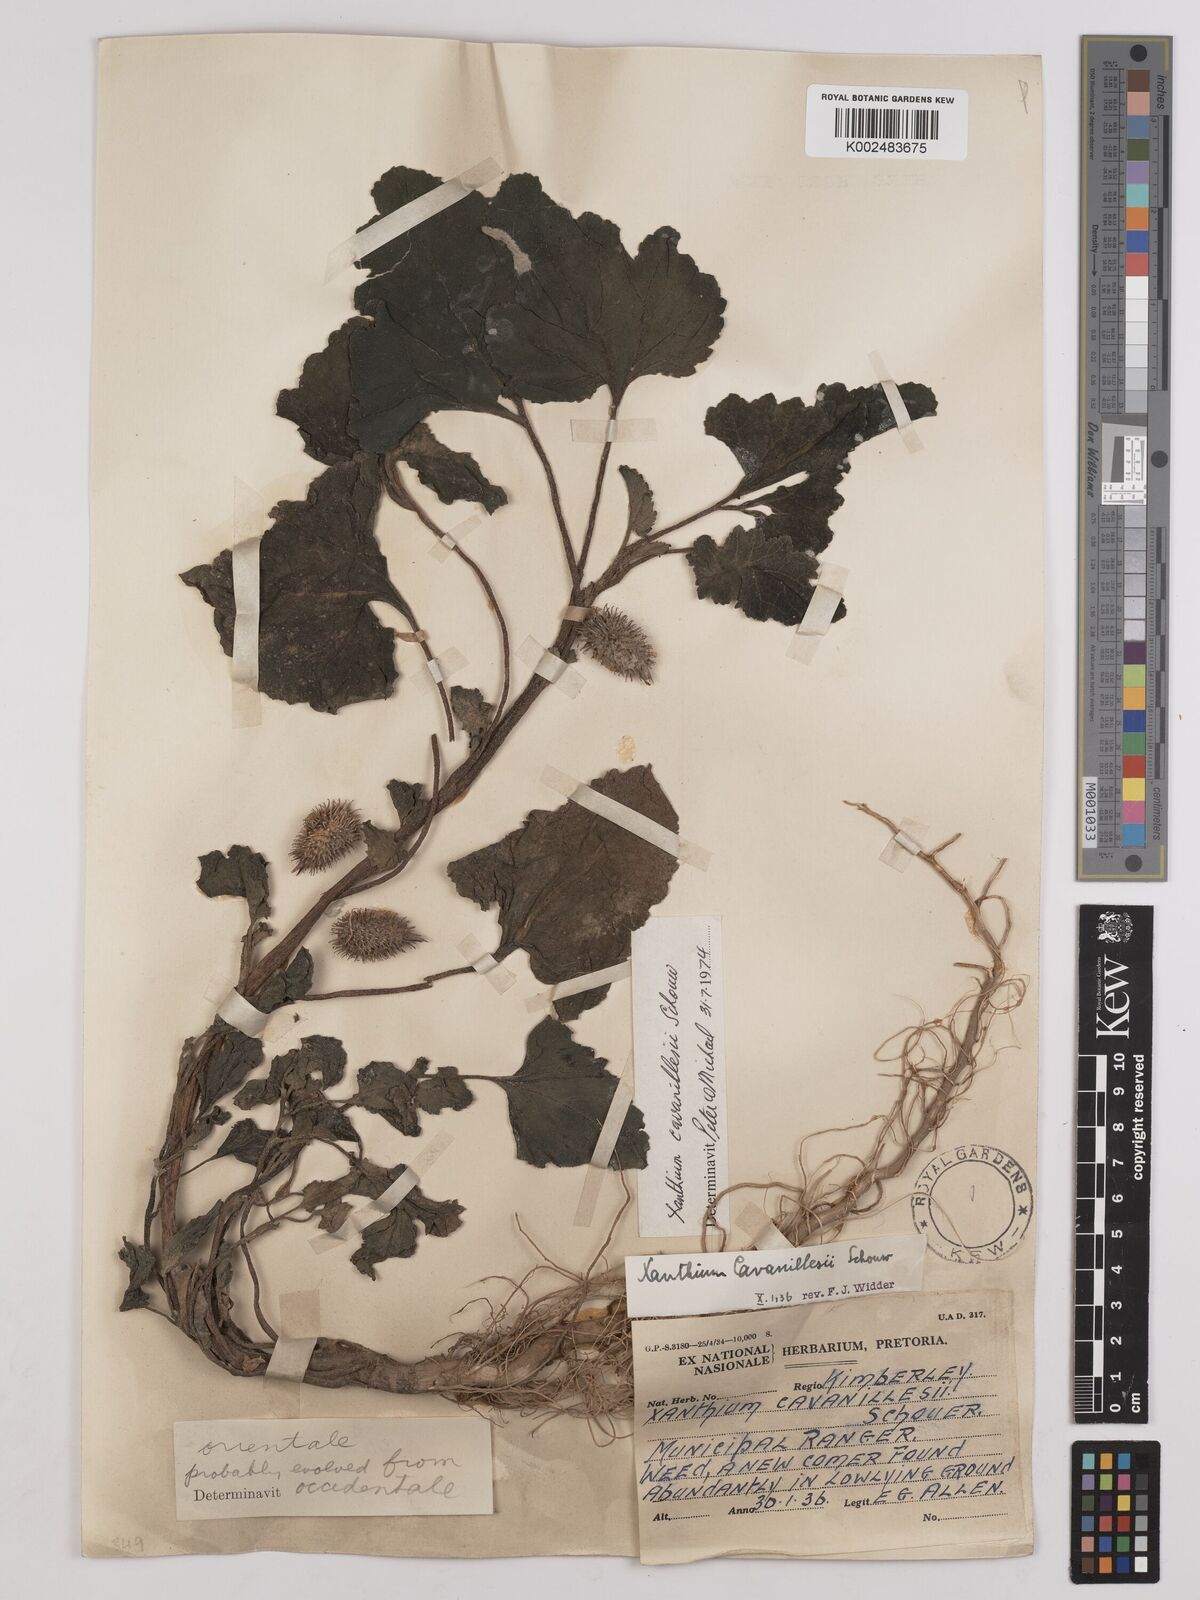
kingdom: Plantae
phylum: Tracheophyta
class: Magnoliopsida
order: Asterales
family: Asteraceae
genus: Xanthium
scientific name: Xanthium orientale
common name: Californian burr
